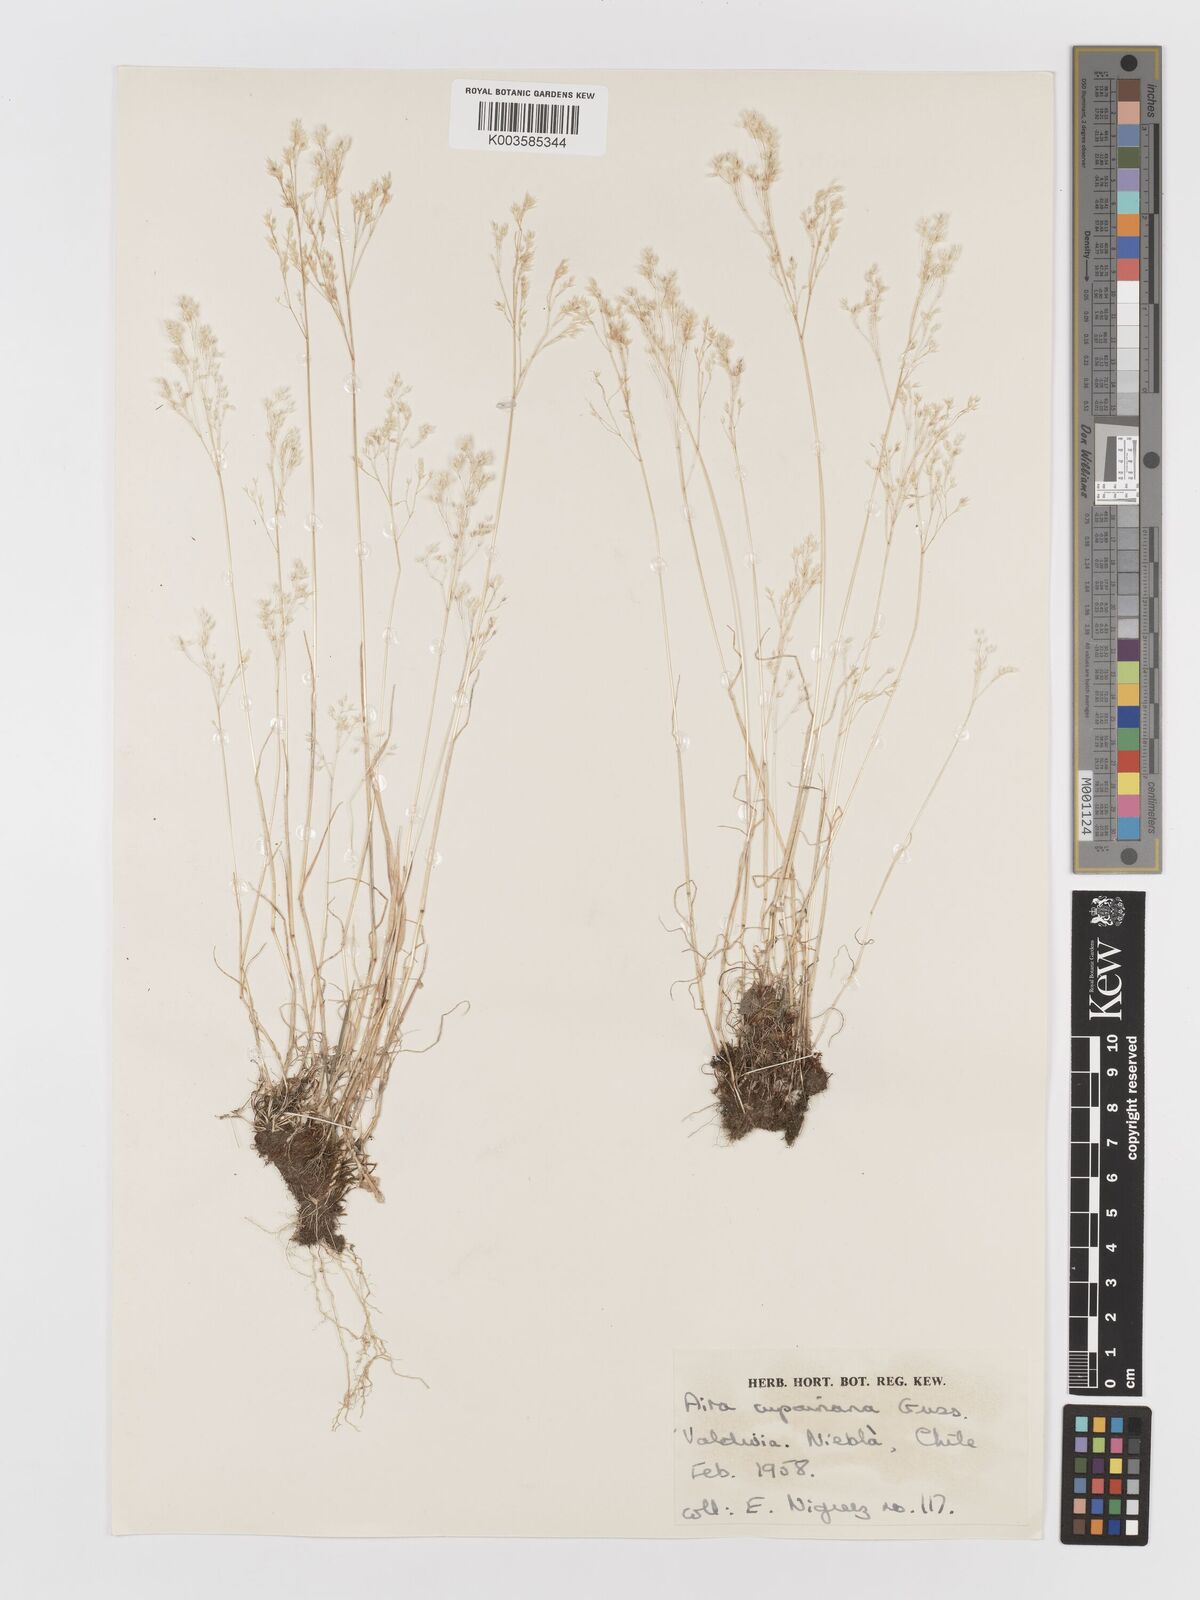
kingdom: Plantae
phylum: Tracheophyta
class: Liliopsida
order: Poales
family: Poaceae
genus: Aira
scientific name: Aira caryophyllea
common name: Silver hairgrass
